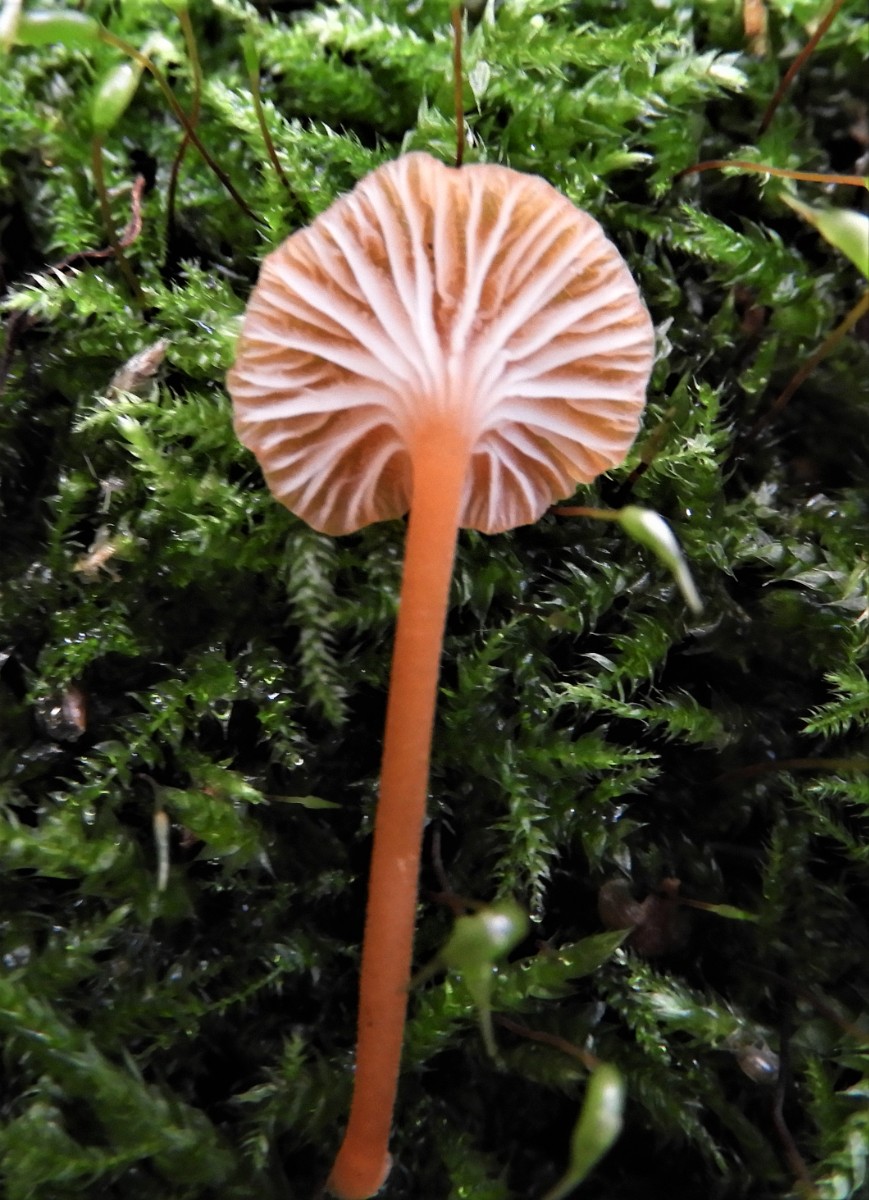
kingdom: Fungi
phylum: Basidiomycota
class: Agaricomycetes
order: Hymenochaetales
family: Rickenellaceae
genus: Rickenella
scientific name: Rickenella fibula
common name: orange mosnavlehat
